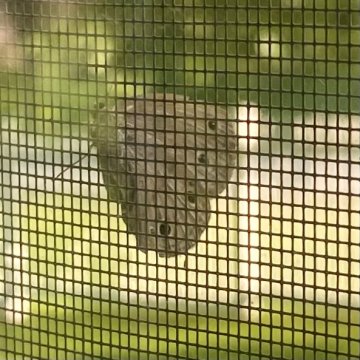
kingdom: Animalia
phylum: Arthropoda
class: Insecta
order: Lepidoptera
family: Nymphalidae
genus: Euptychia
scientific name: Euptychia cymela
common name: Little Wood Satyr
